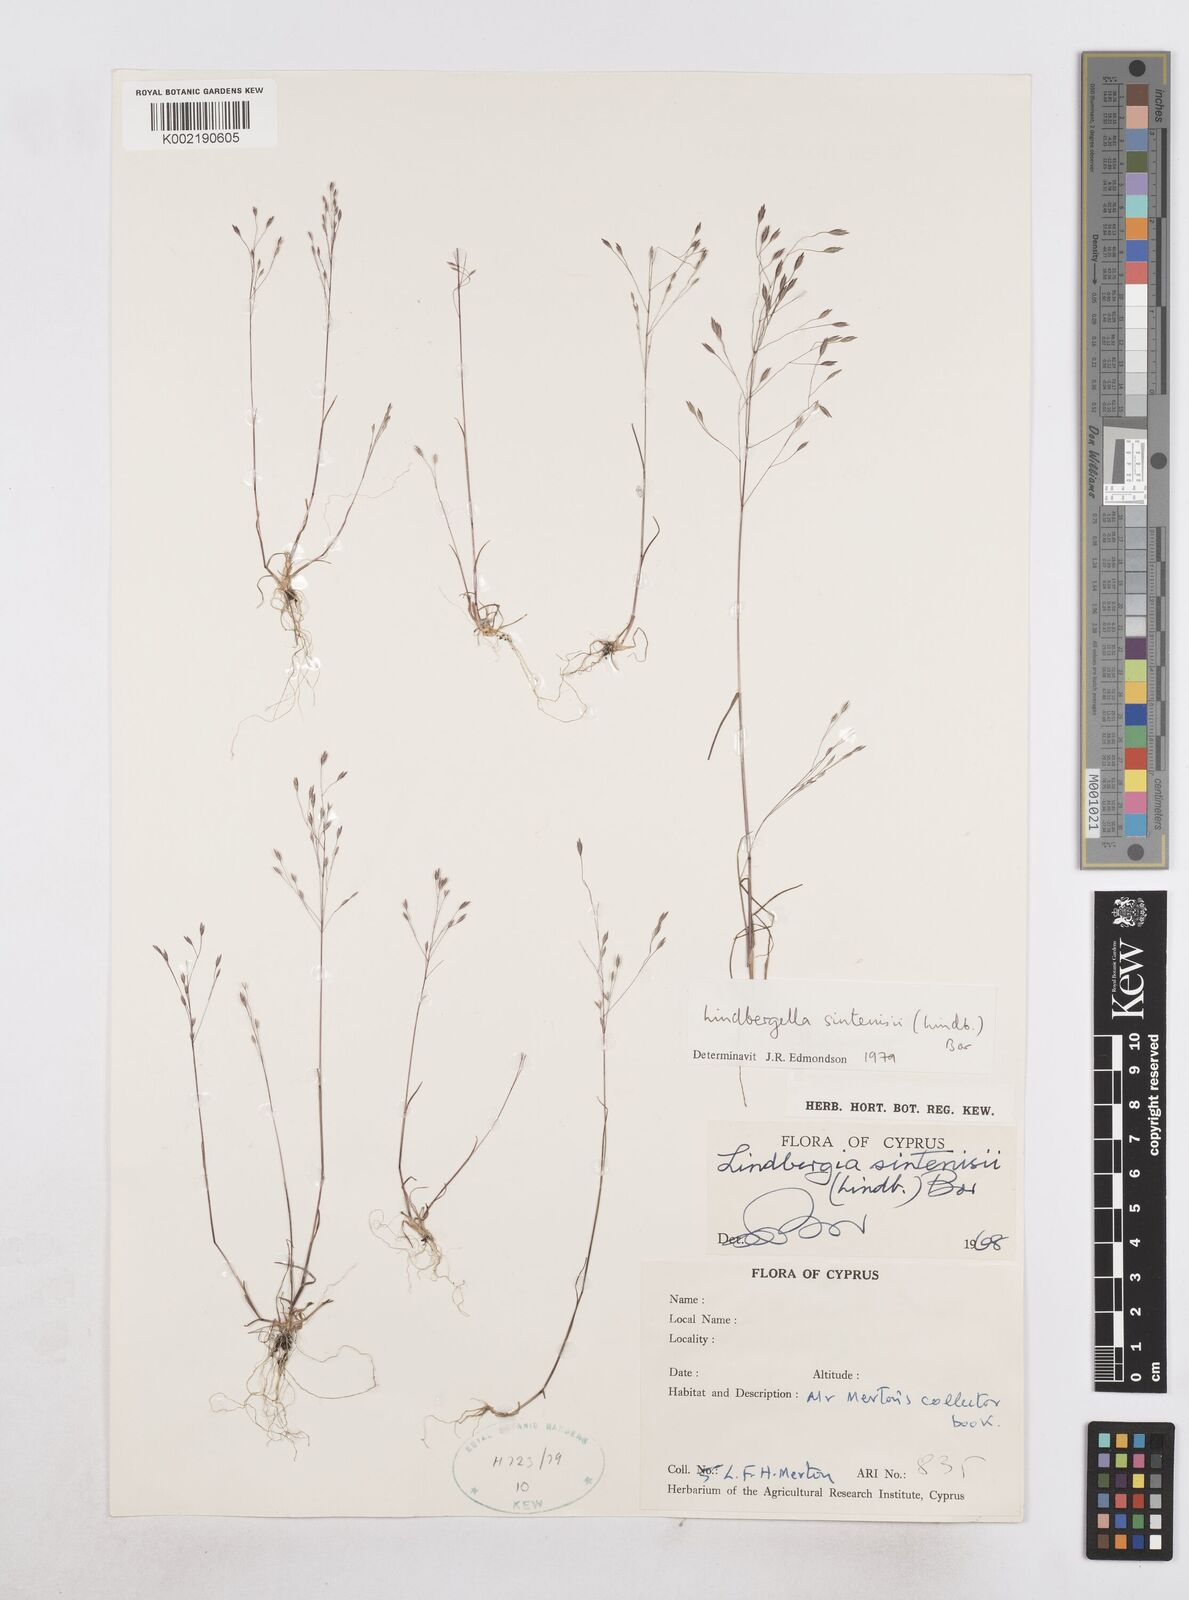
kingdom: Plantae
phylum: Tracheophyta
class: Liliopsida
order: Poales
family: Poaceae
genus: Poa
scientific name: Poa sintenisii
